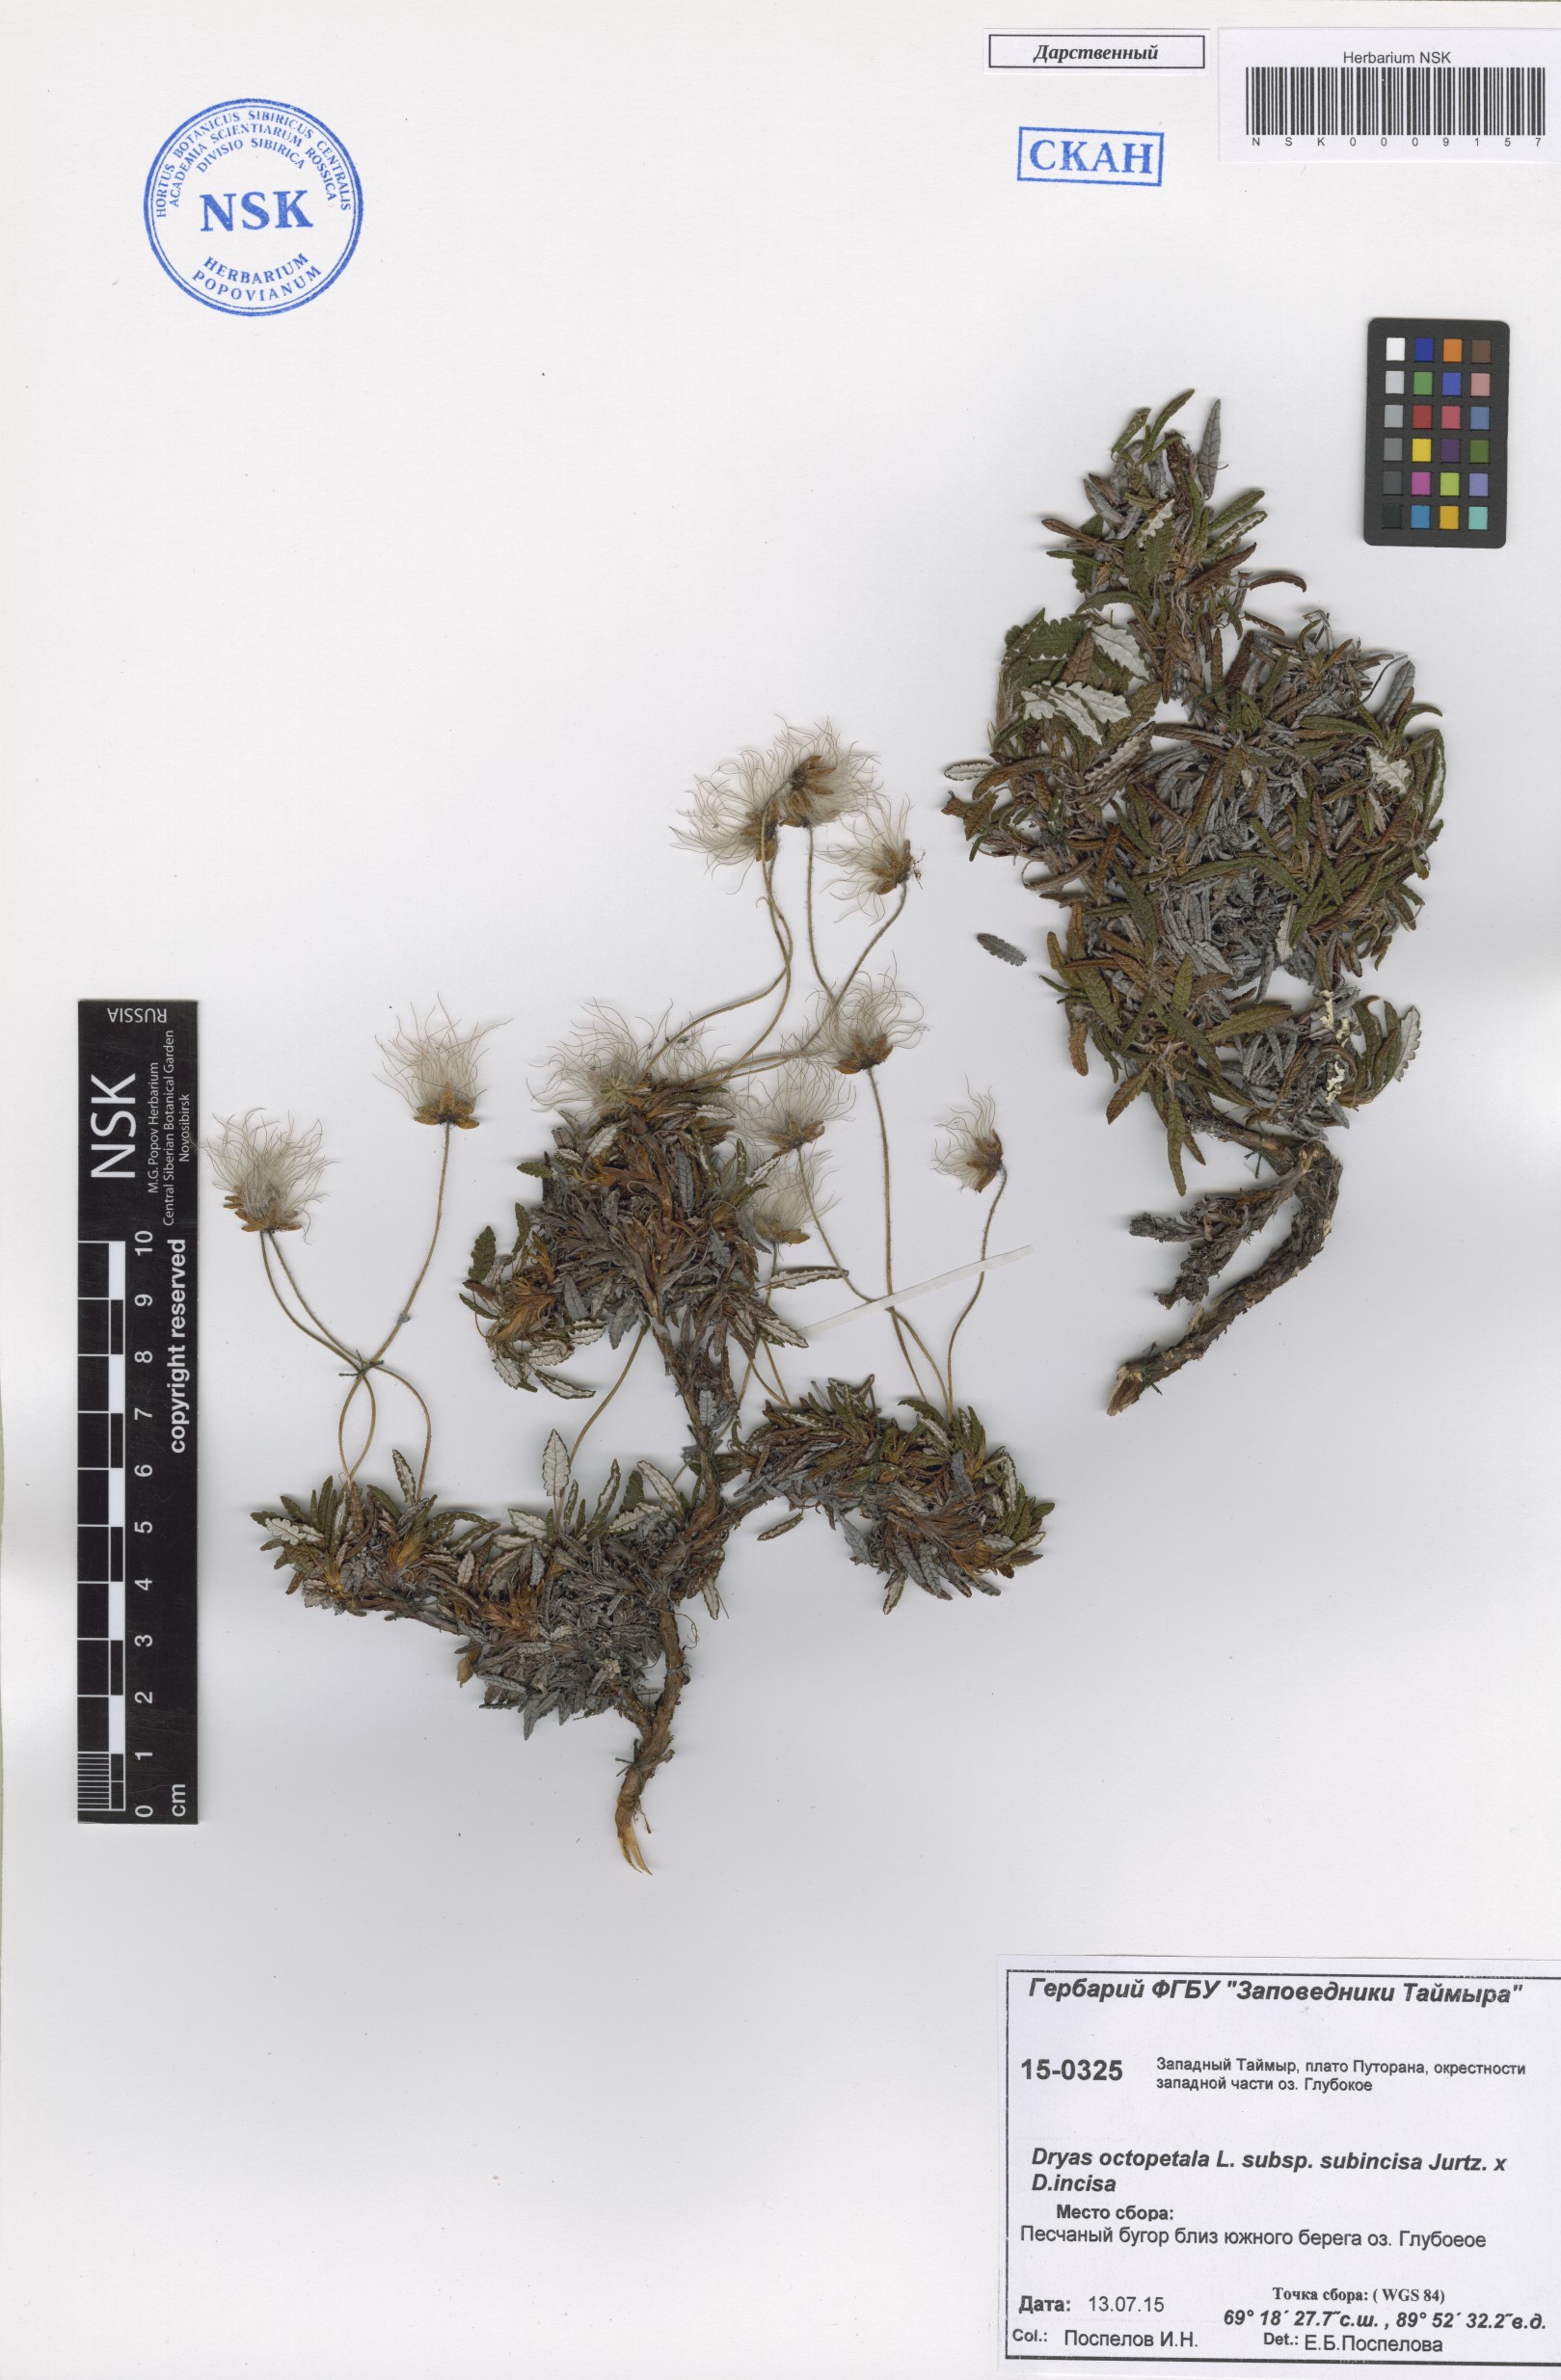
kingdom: Plantae
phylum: Tracheophyta
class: Magnoliopsida
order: Rosales
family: Rosaceae
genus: Dryas
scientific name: Dryas octopetala
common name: Eight-petal mountain-avens
